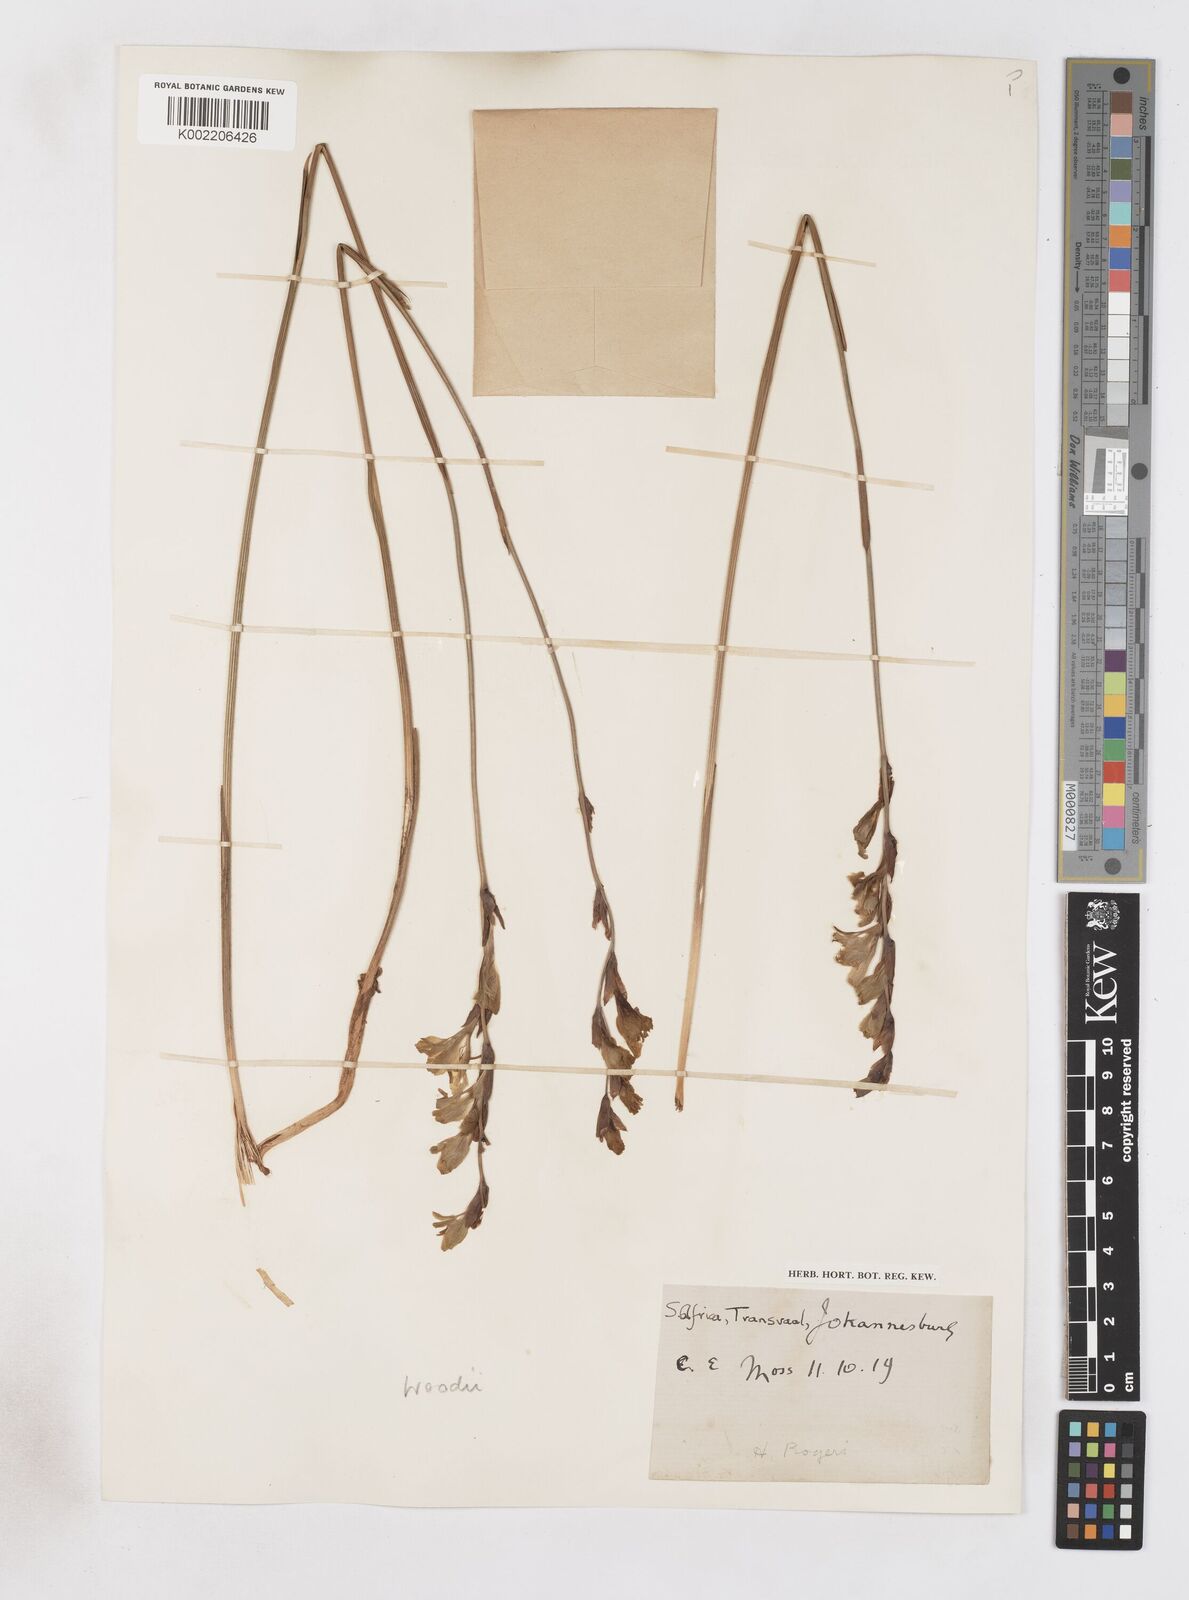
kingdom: Plantae
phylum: Tracheophyta
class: Liliopsida
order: Asparagales
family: Iridaceae
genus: Gladiolus
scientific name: Gladiolus woodii
